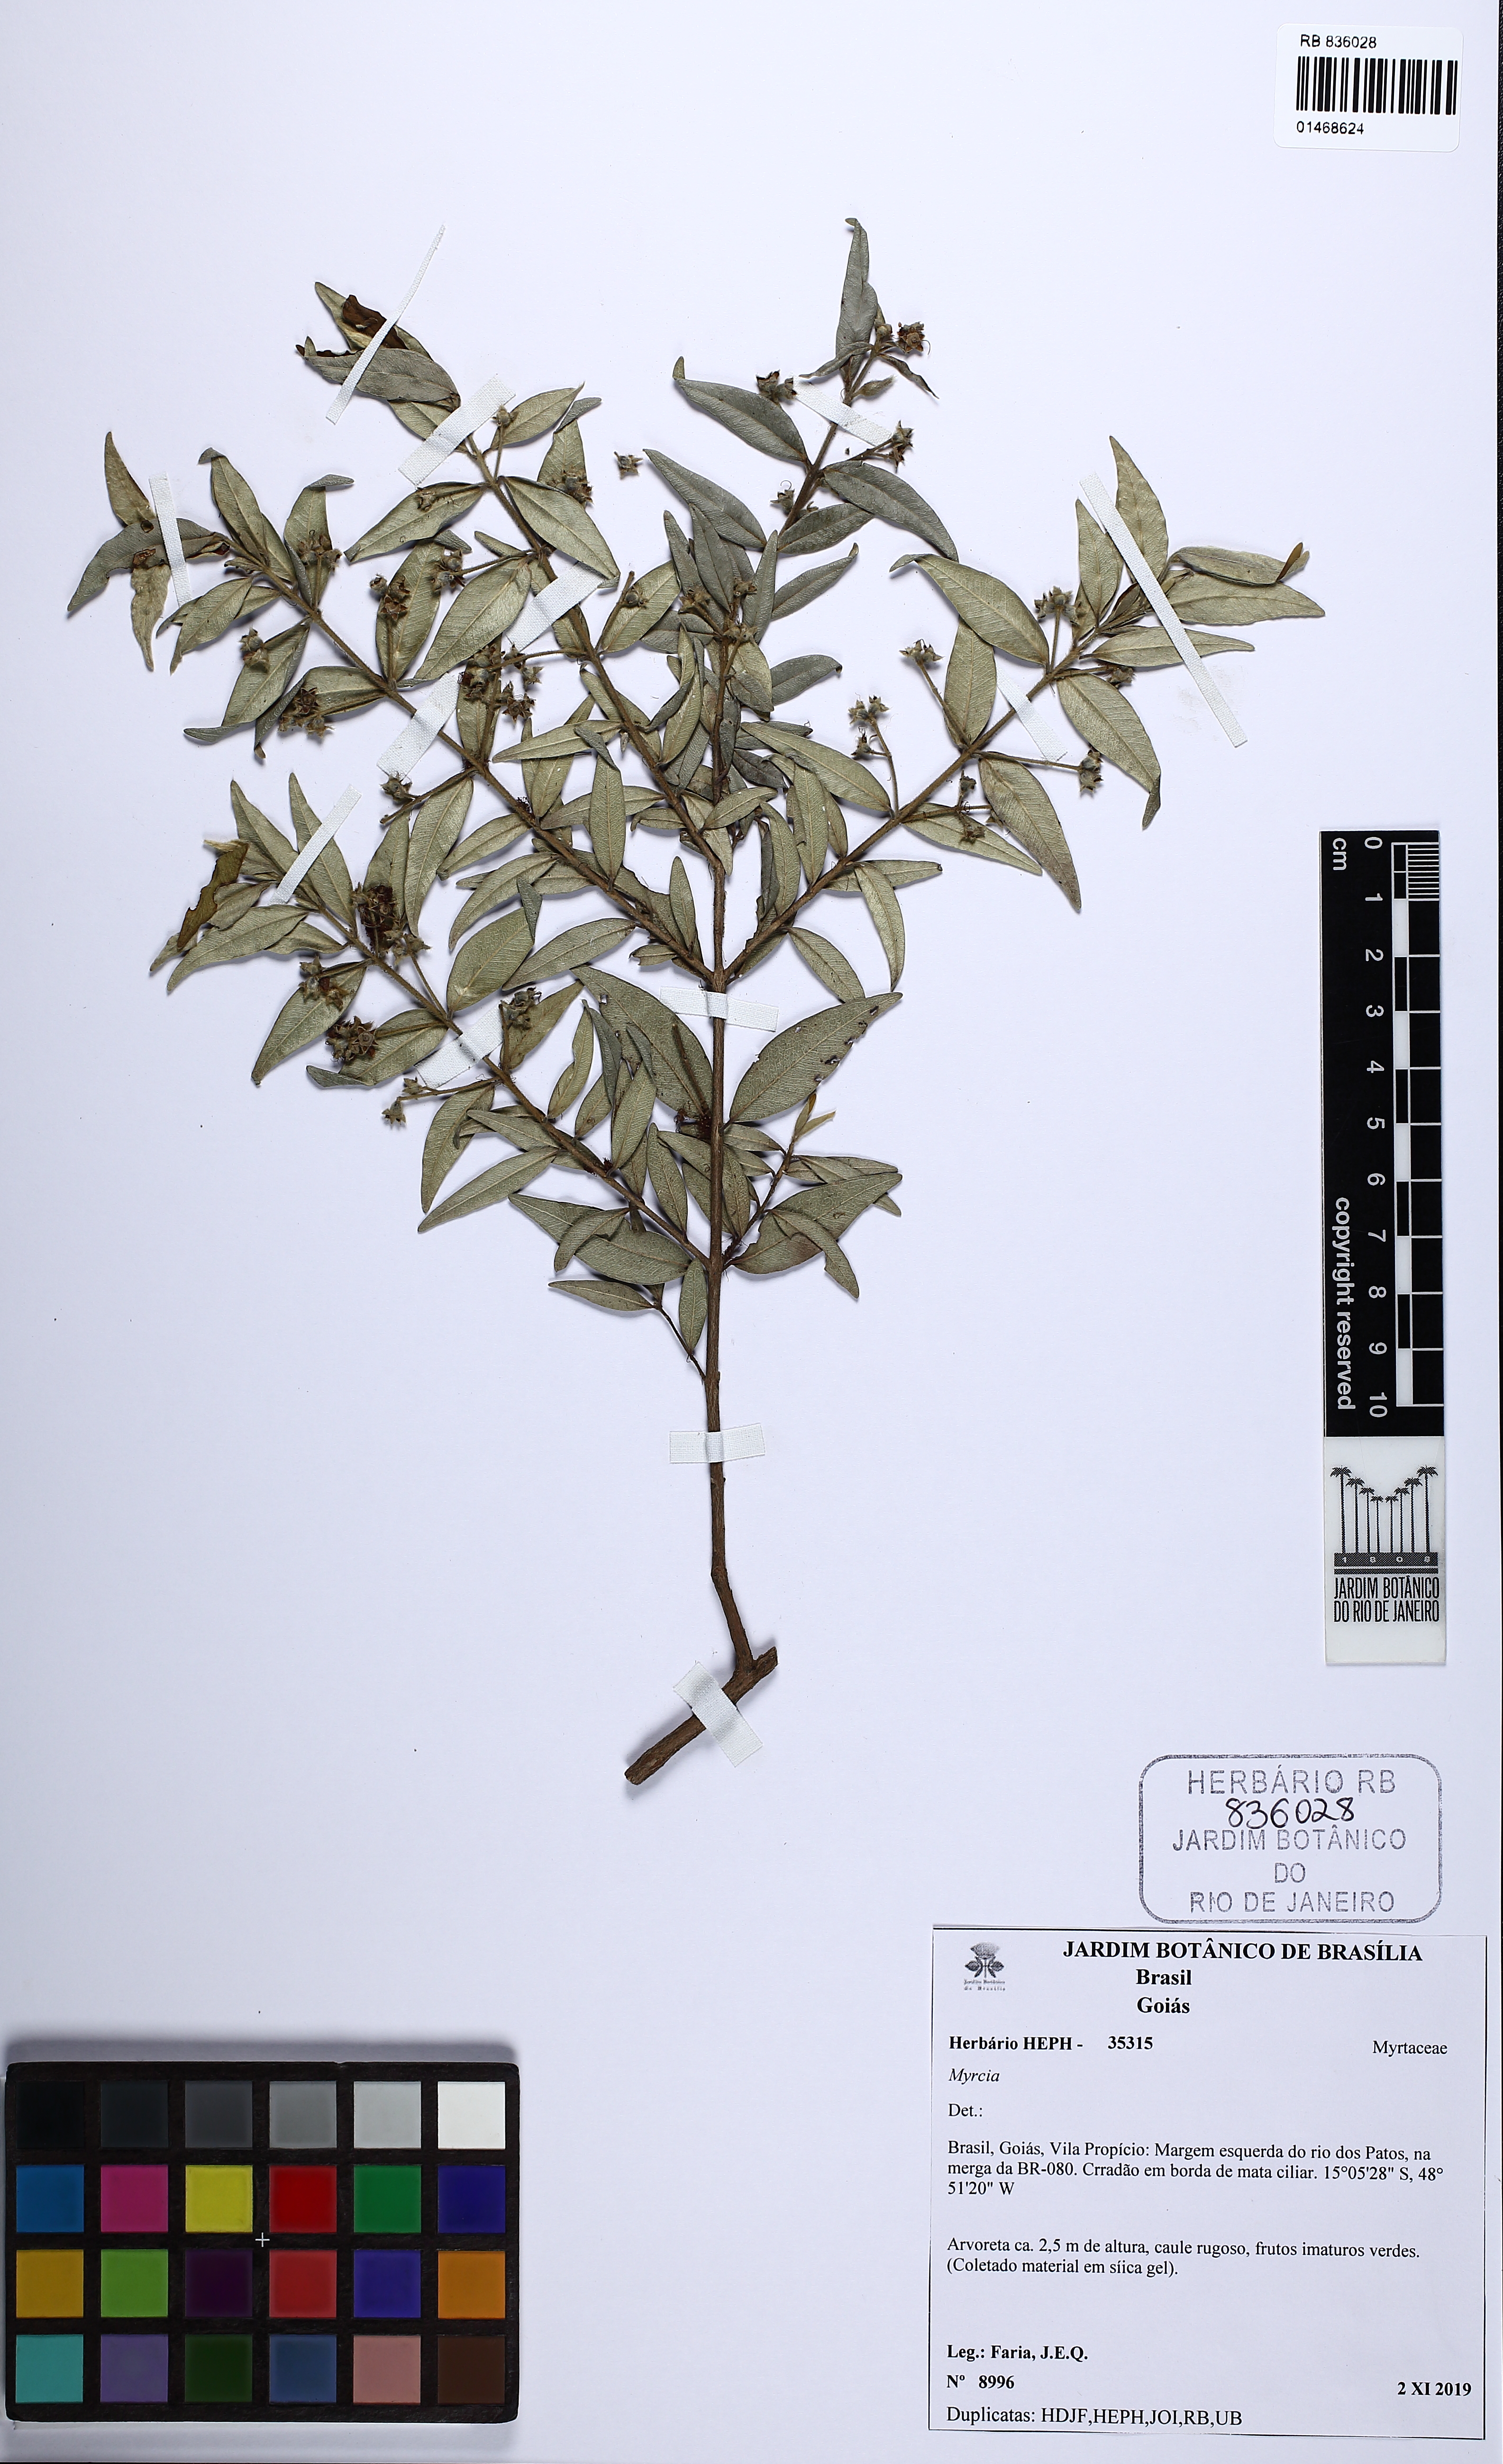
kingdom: Plantae
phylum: Tracheophyta
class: Magnoliopsida
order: Myrtales
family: Myrtaceae
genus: Myrcia
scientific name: Myrcia
